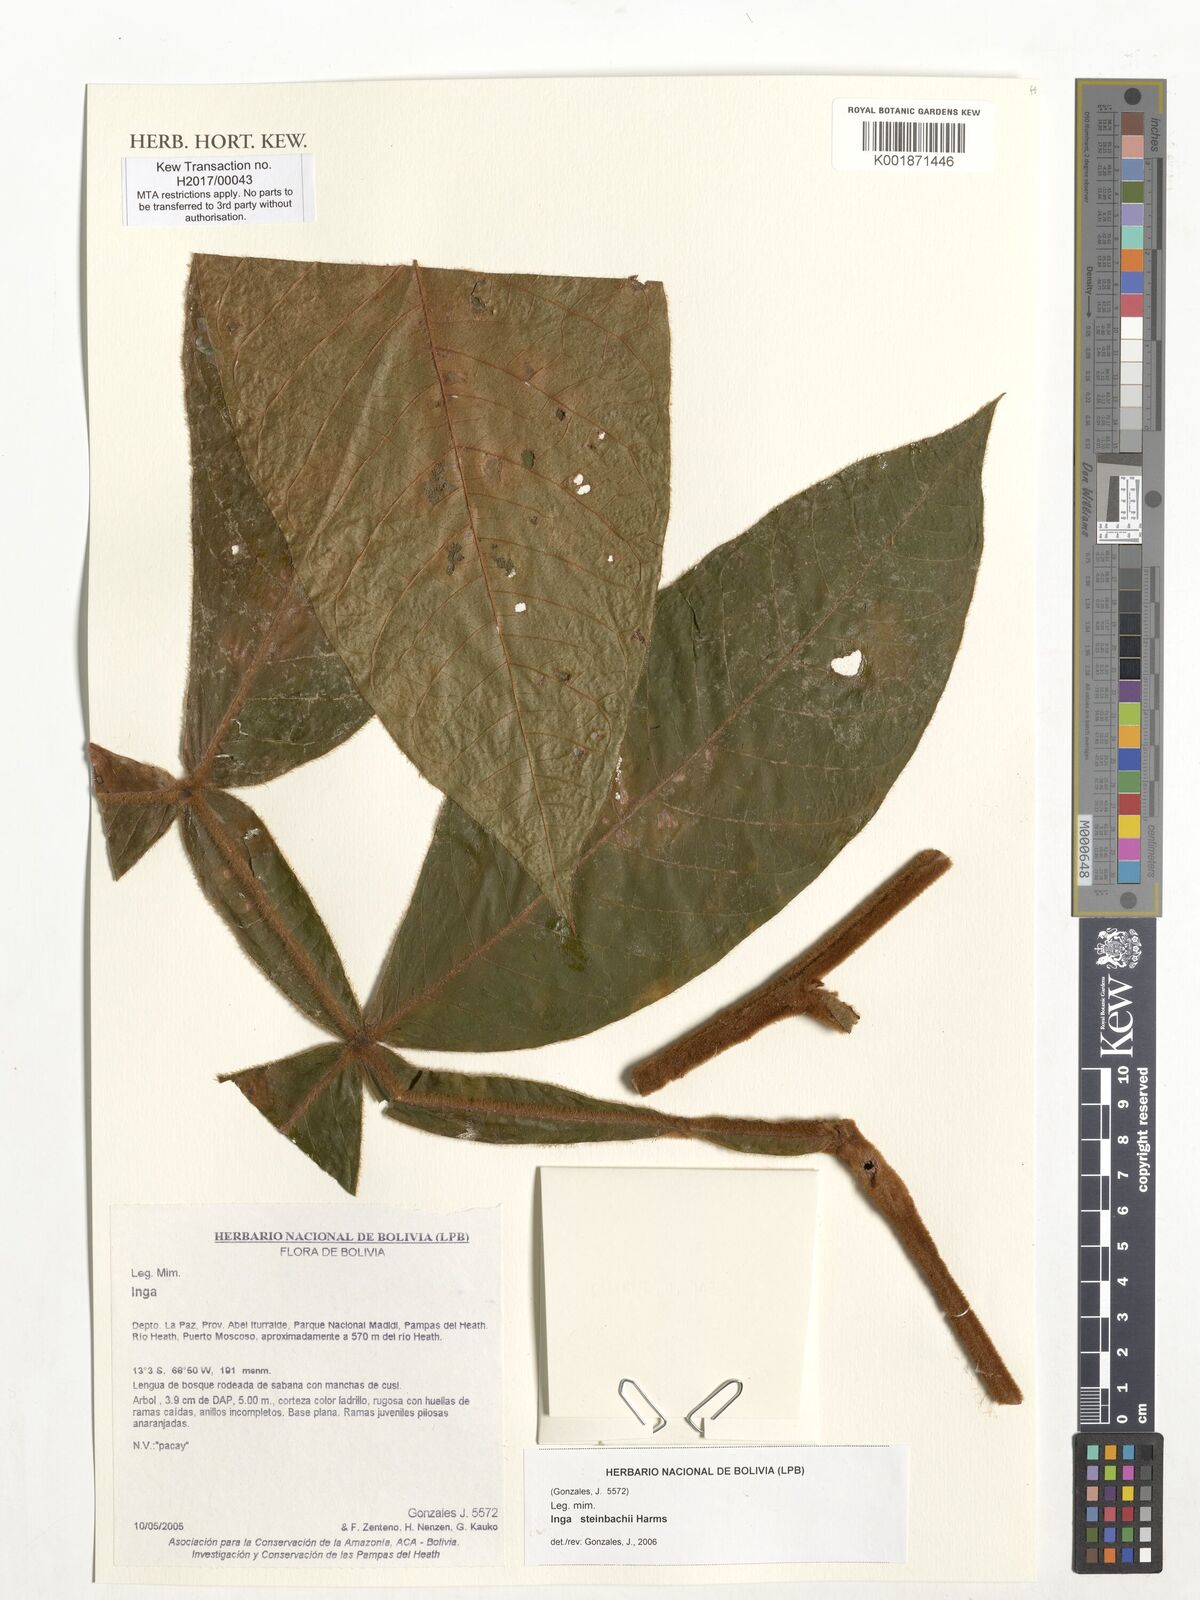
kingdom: Plantae
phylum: Tracheophyta
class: Magnoliopsida
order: Fabales
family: Fabaceae
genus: Inga
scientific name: Inga steinbachii
